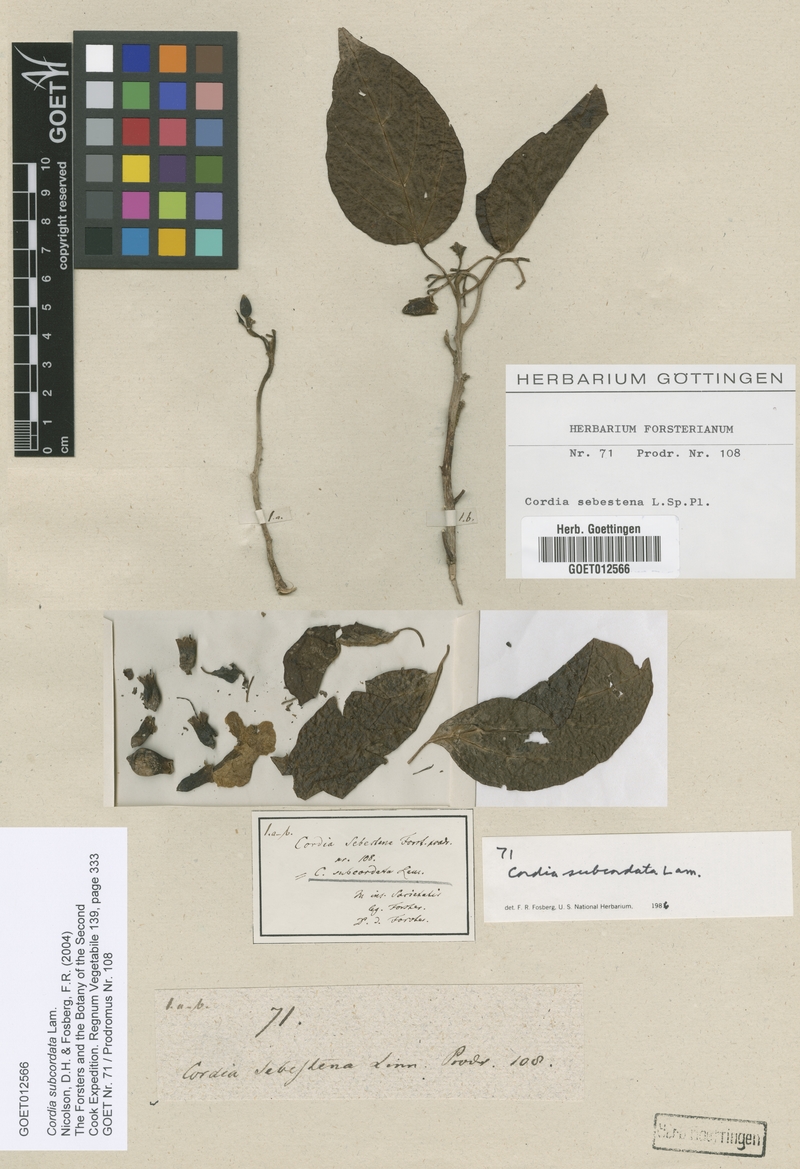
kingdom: Plantae
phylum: Tracheophyta
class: Magnoliopsida
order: Boraginales
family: Cordiaceae
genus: Cordia
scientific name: Cordia subcordata
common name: Mareer
